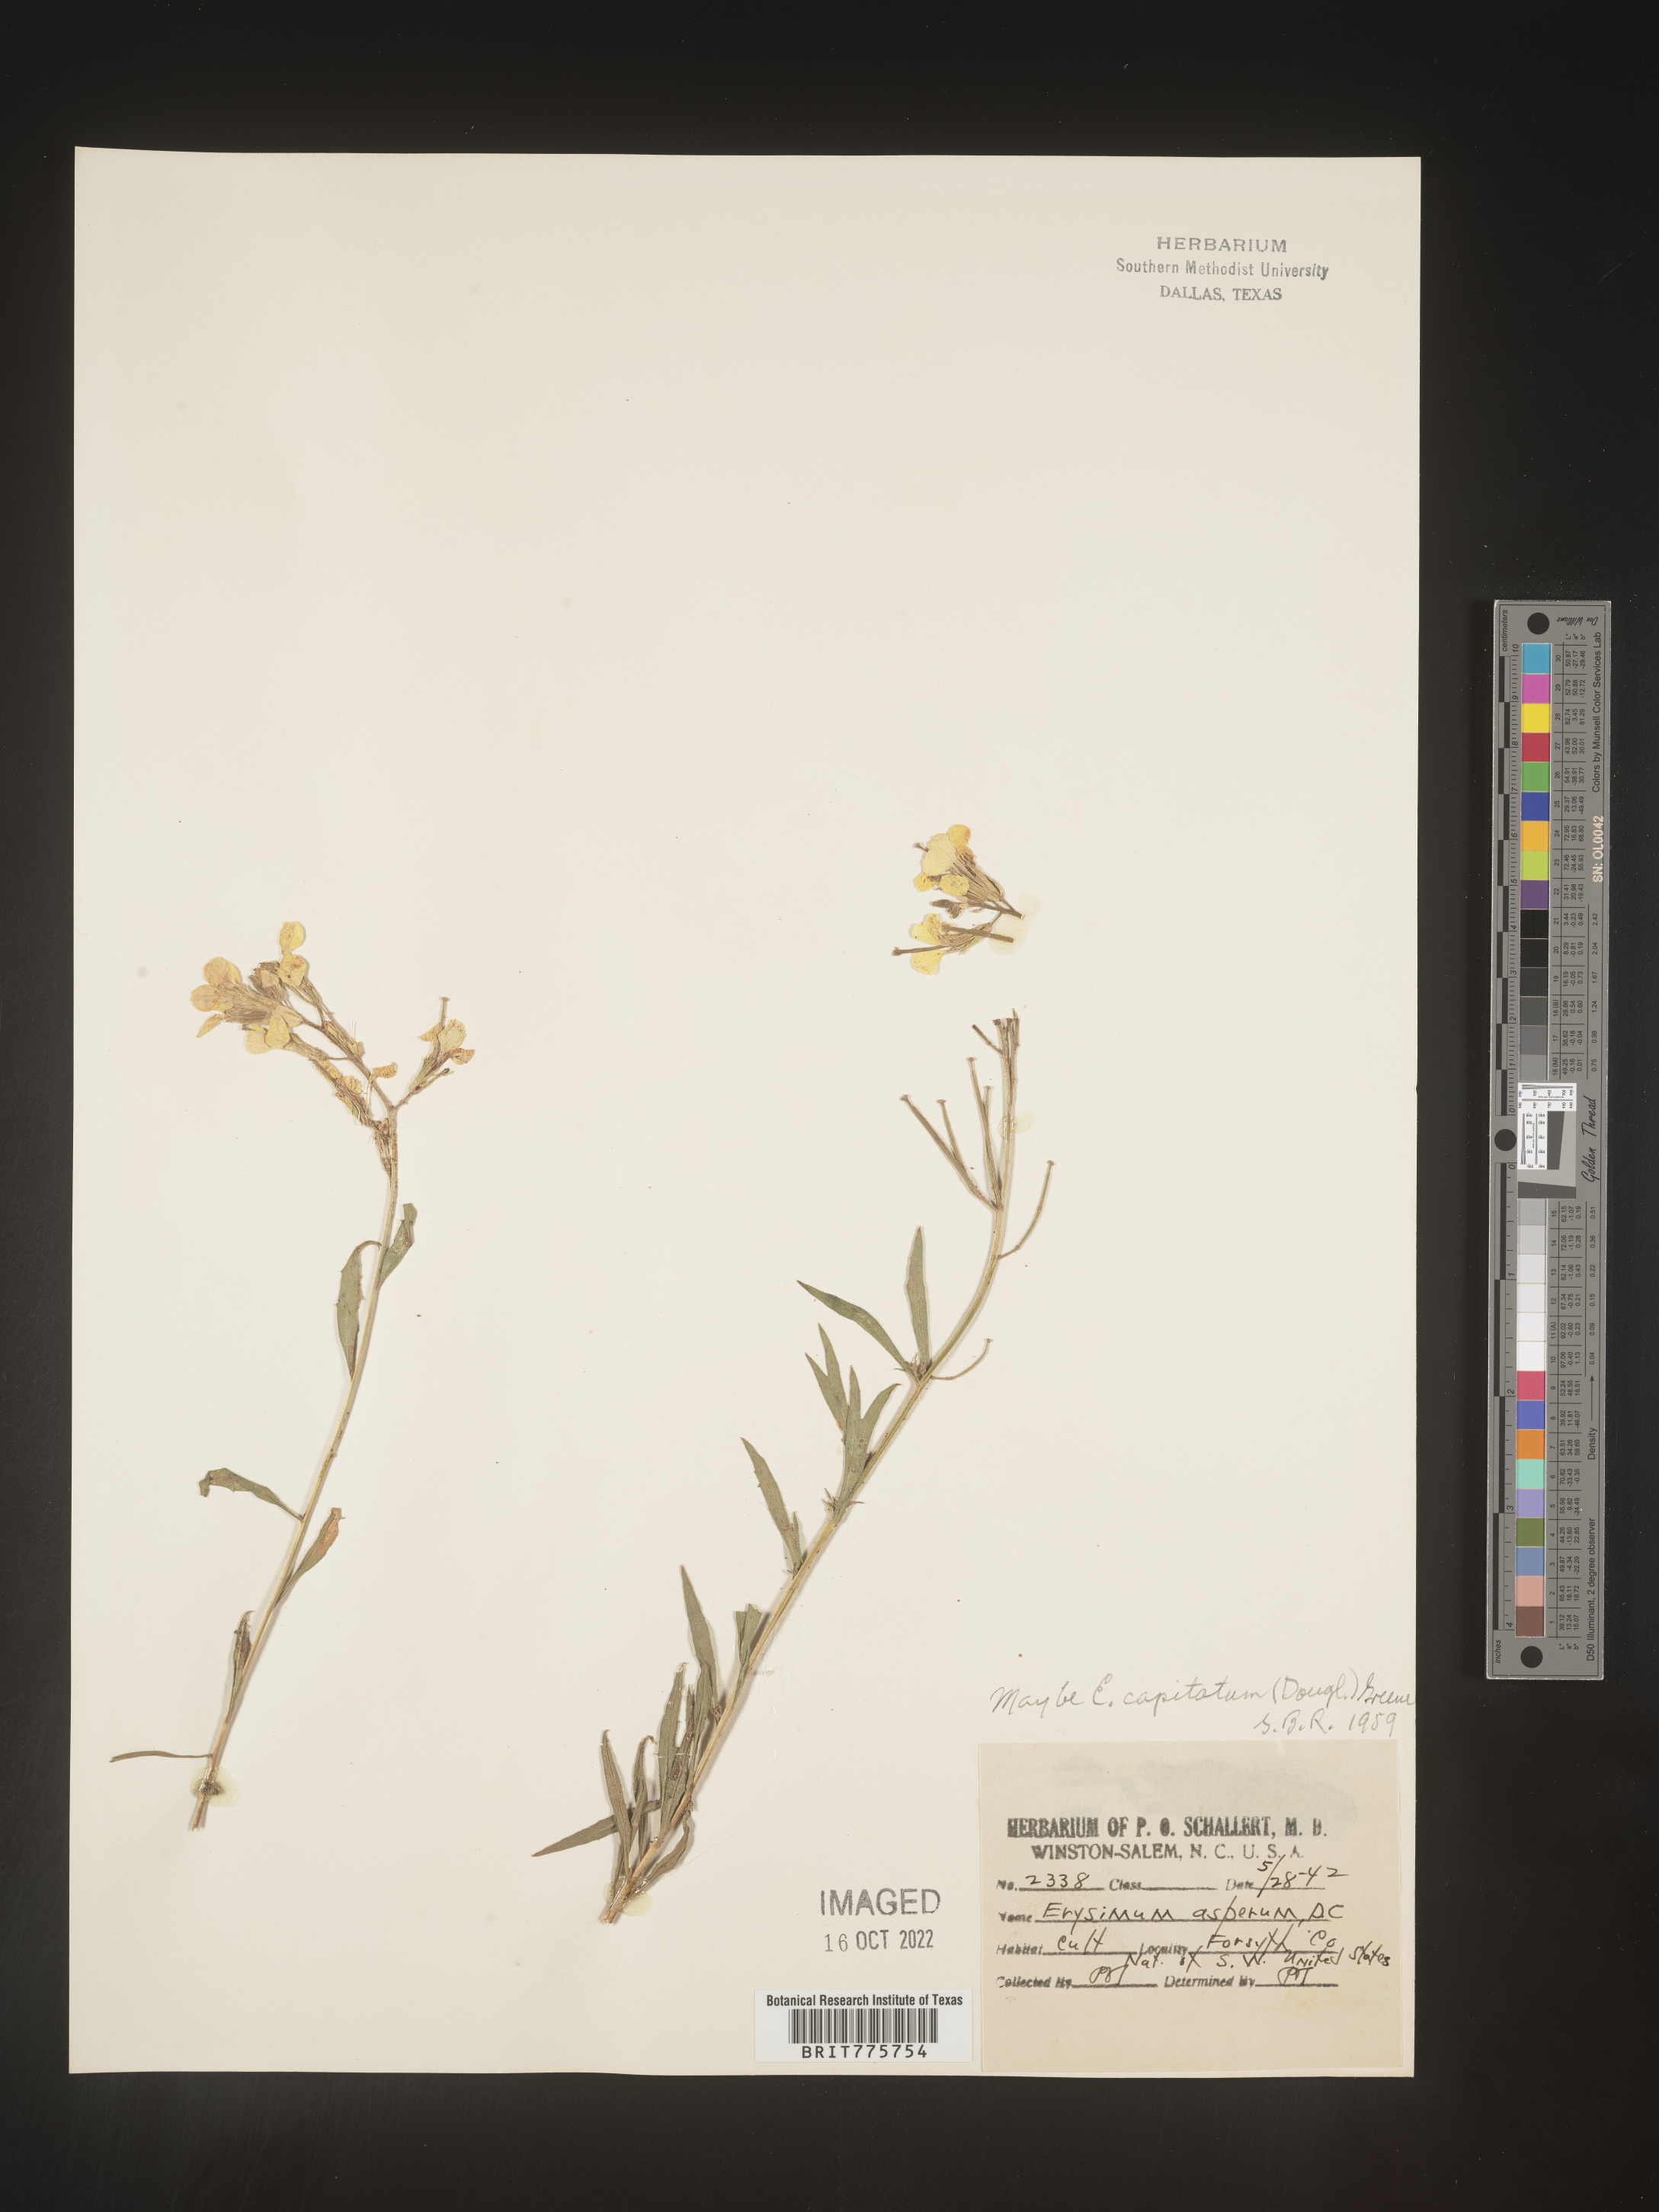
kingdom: Plantae
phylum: Tracheophyta
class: Magnoliopsida
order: Brassicales
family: Brassicaceae
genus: Erysimum
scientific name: Erysimum
